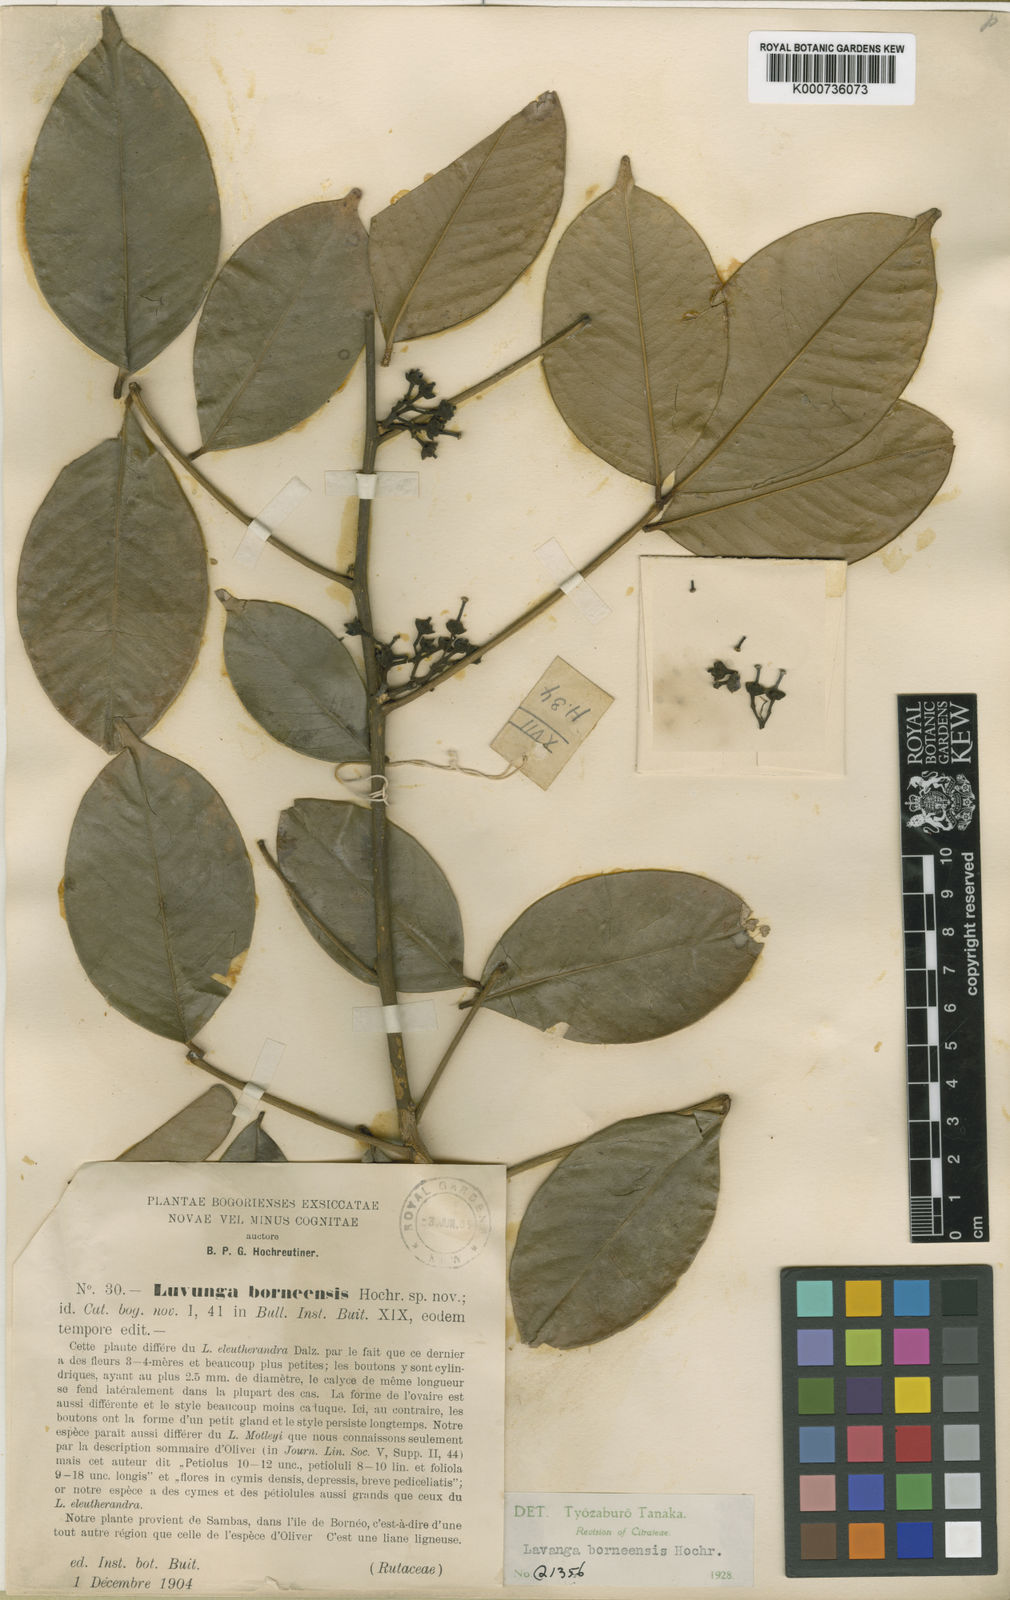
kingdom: Plantae
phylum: Tracheophyta
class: Magnoliopsida
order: Sapindales
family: Rutaceae
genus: Luvunga
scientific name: Luvunga borneensis
